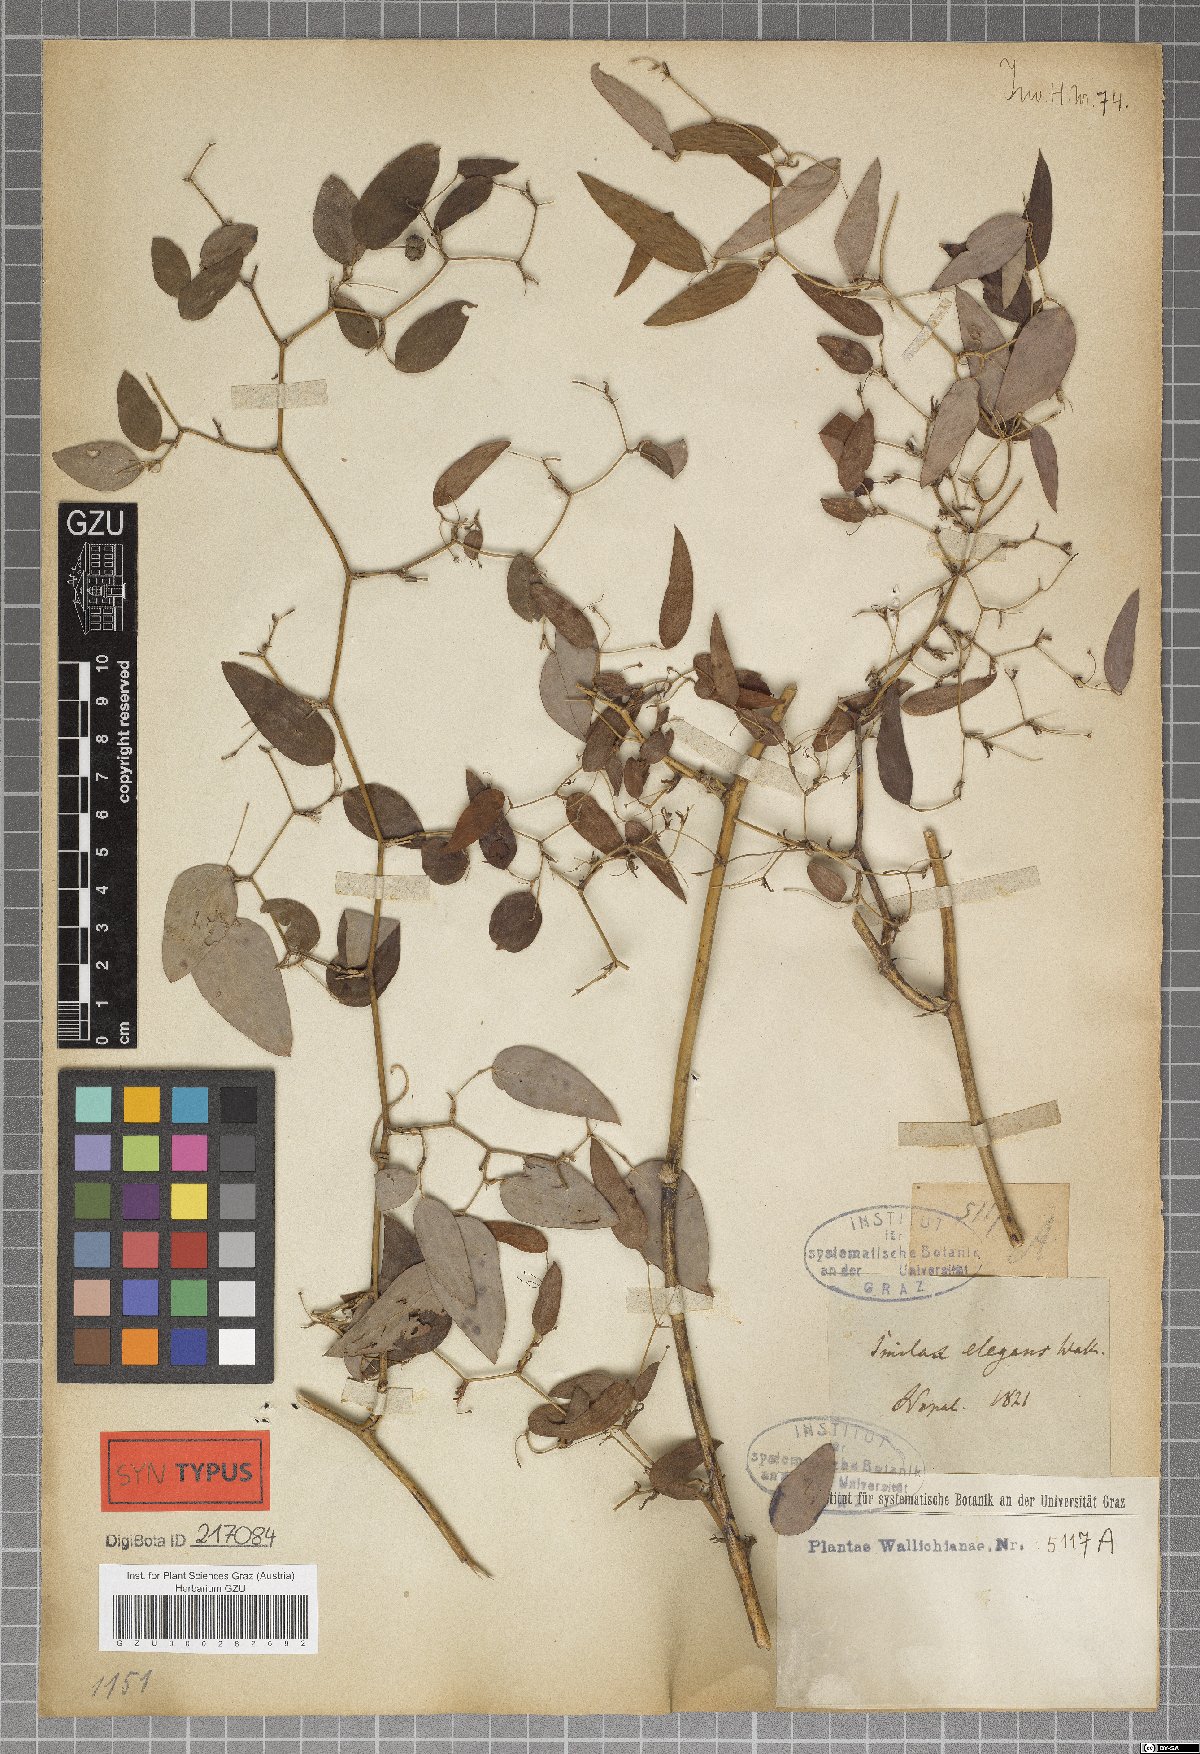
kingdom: Plantae
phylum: Tracheophyta
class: Liliopsida
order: Liliales
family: Smilacaceae
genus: Smilax
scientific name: Smilax elegans
